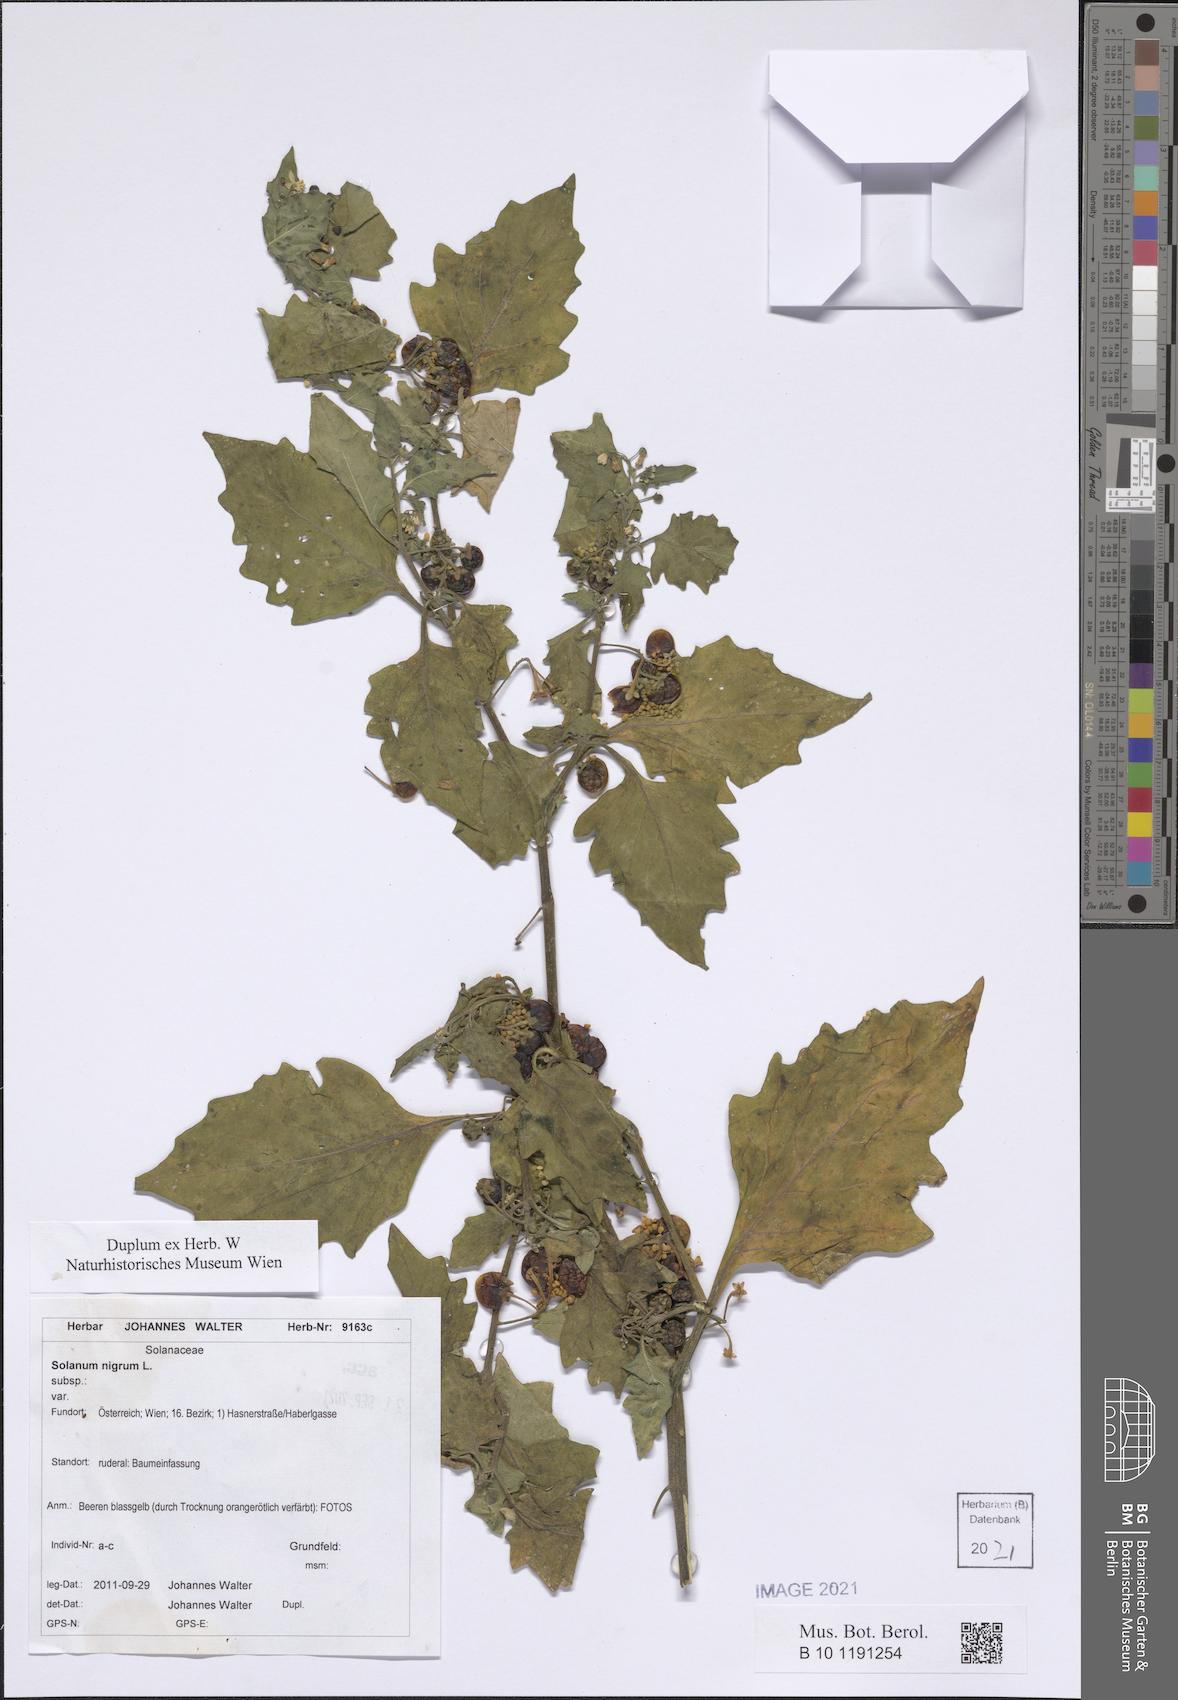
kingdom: Plantae
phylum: Tracheophyta
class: Magnoliopsida
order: Solanales
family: Solanaceae
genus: Solanum
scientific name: Solanum nigrum
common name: Black nightshade
